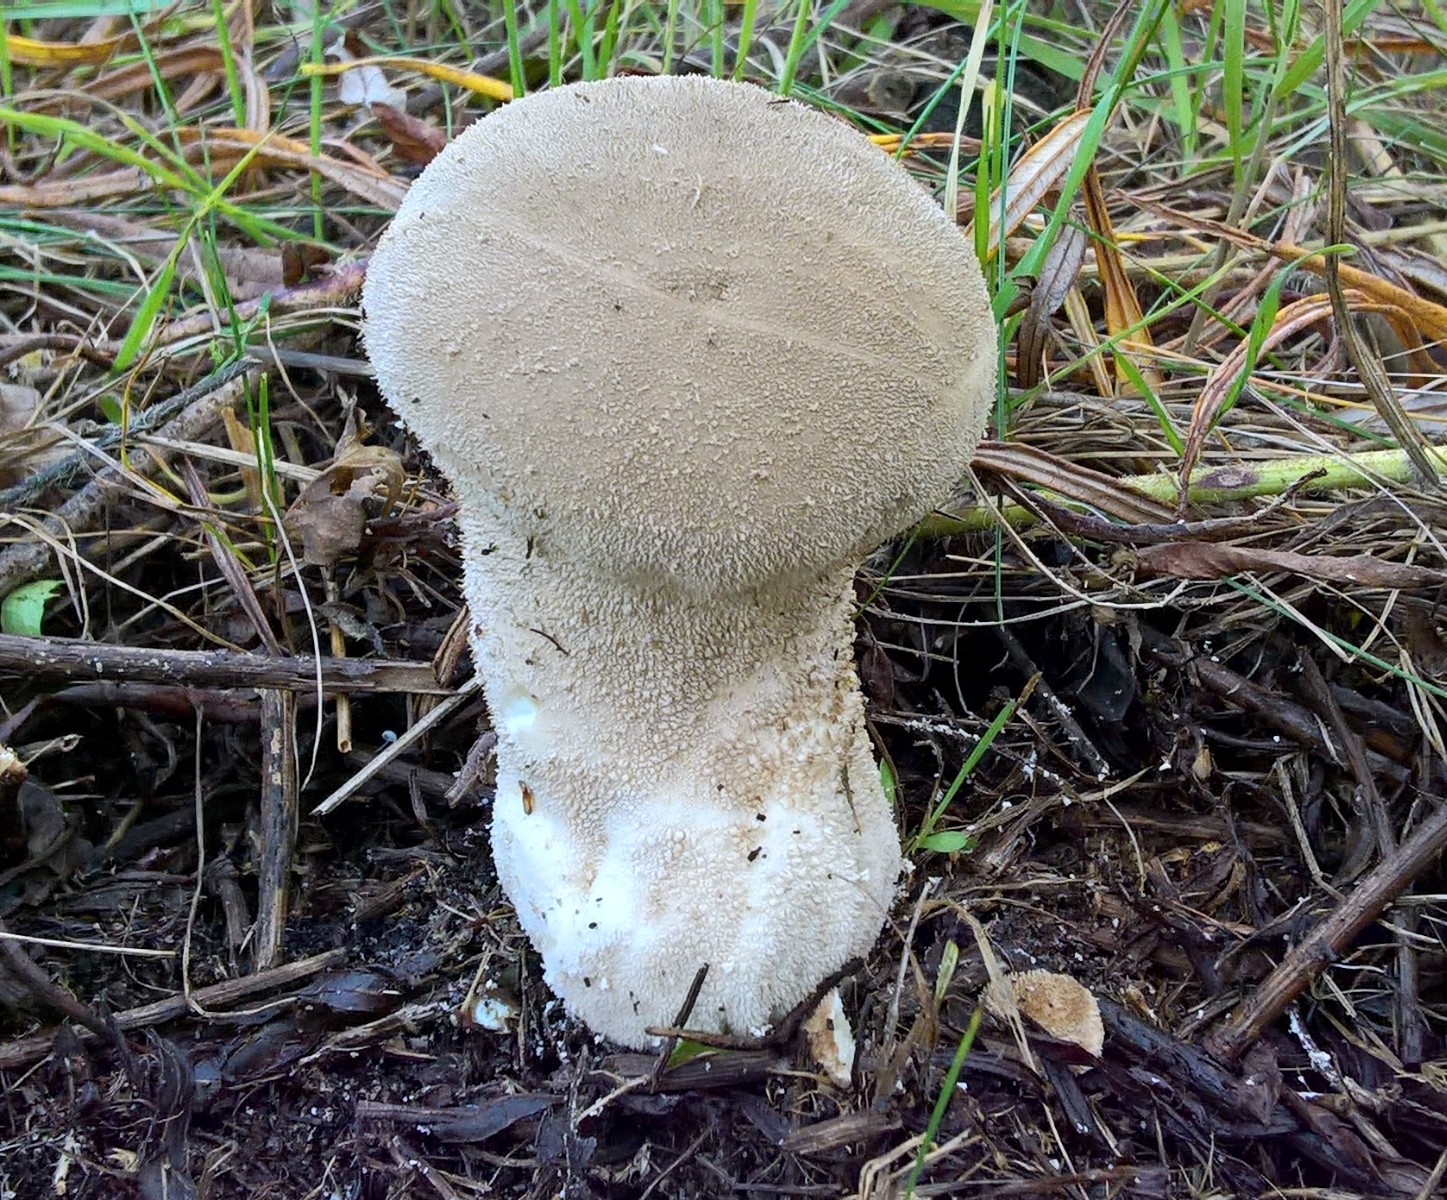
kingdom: Fungi
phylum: Basidiomycota
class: Agaricomycetes
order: Agaricales
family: Lycoperdaceae
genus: Lycoperdon
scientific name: Lycoperdon excipuliforme
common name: højstokket støvbold
